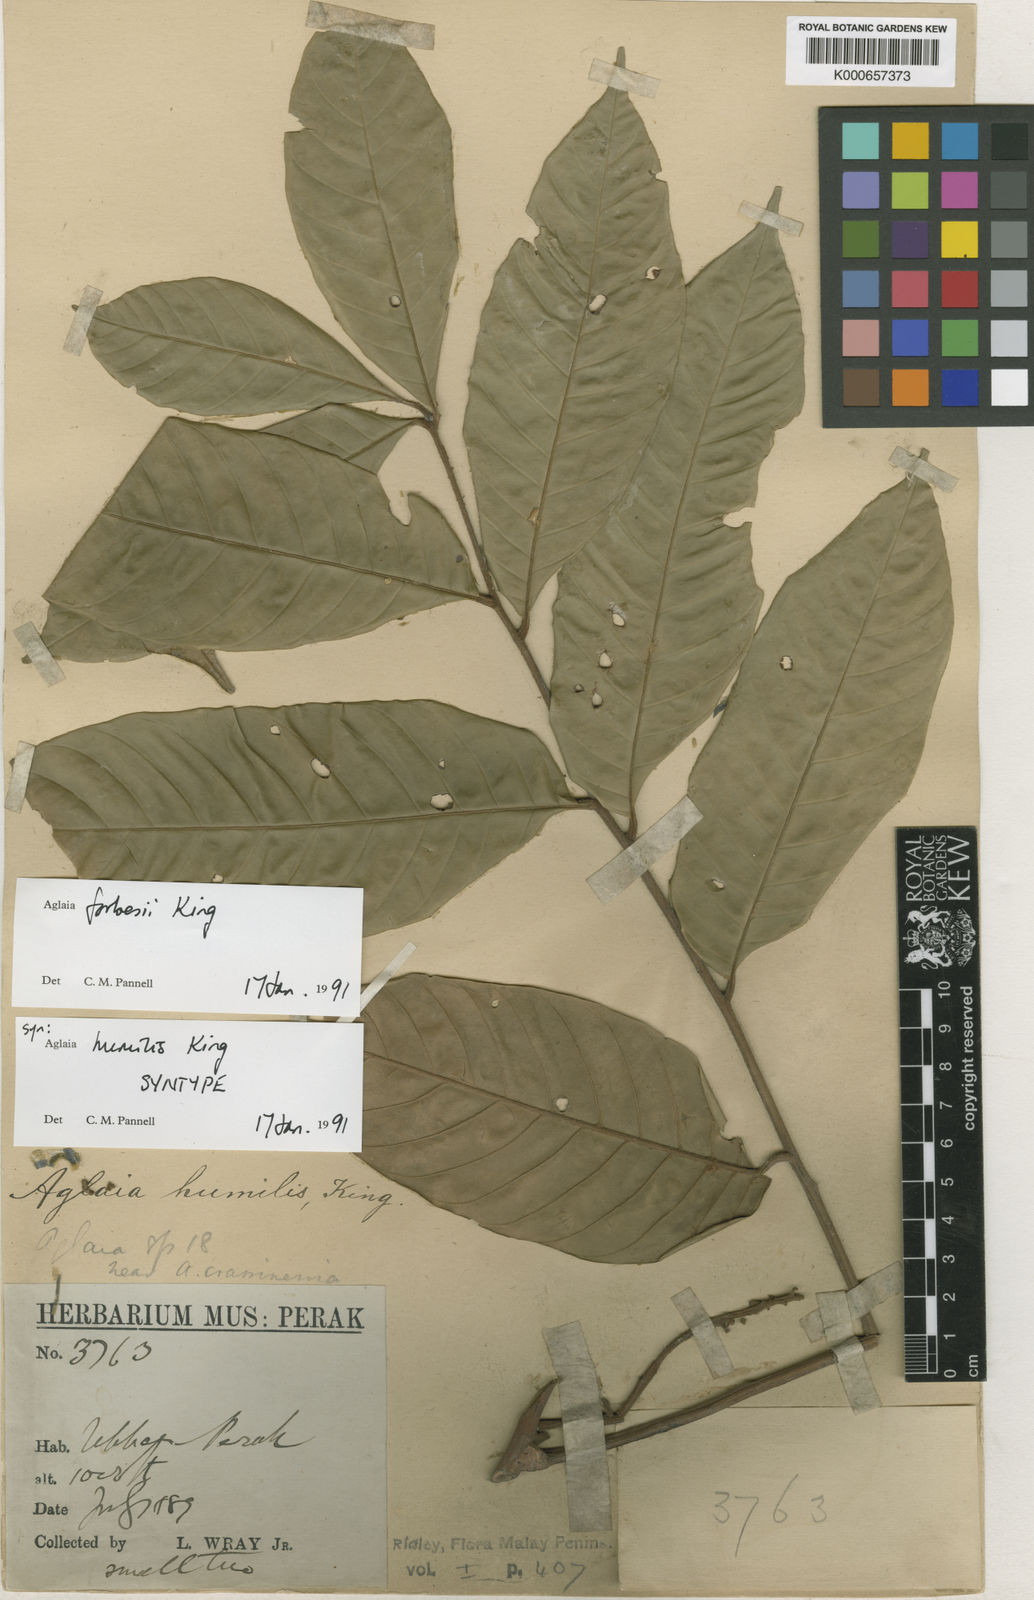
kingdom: Plantae
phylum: Tracheophyta
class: Magnoliopsida
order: Sapindales
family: Meliaceae
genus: Aglaia
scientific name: Aglaia forbesii
